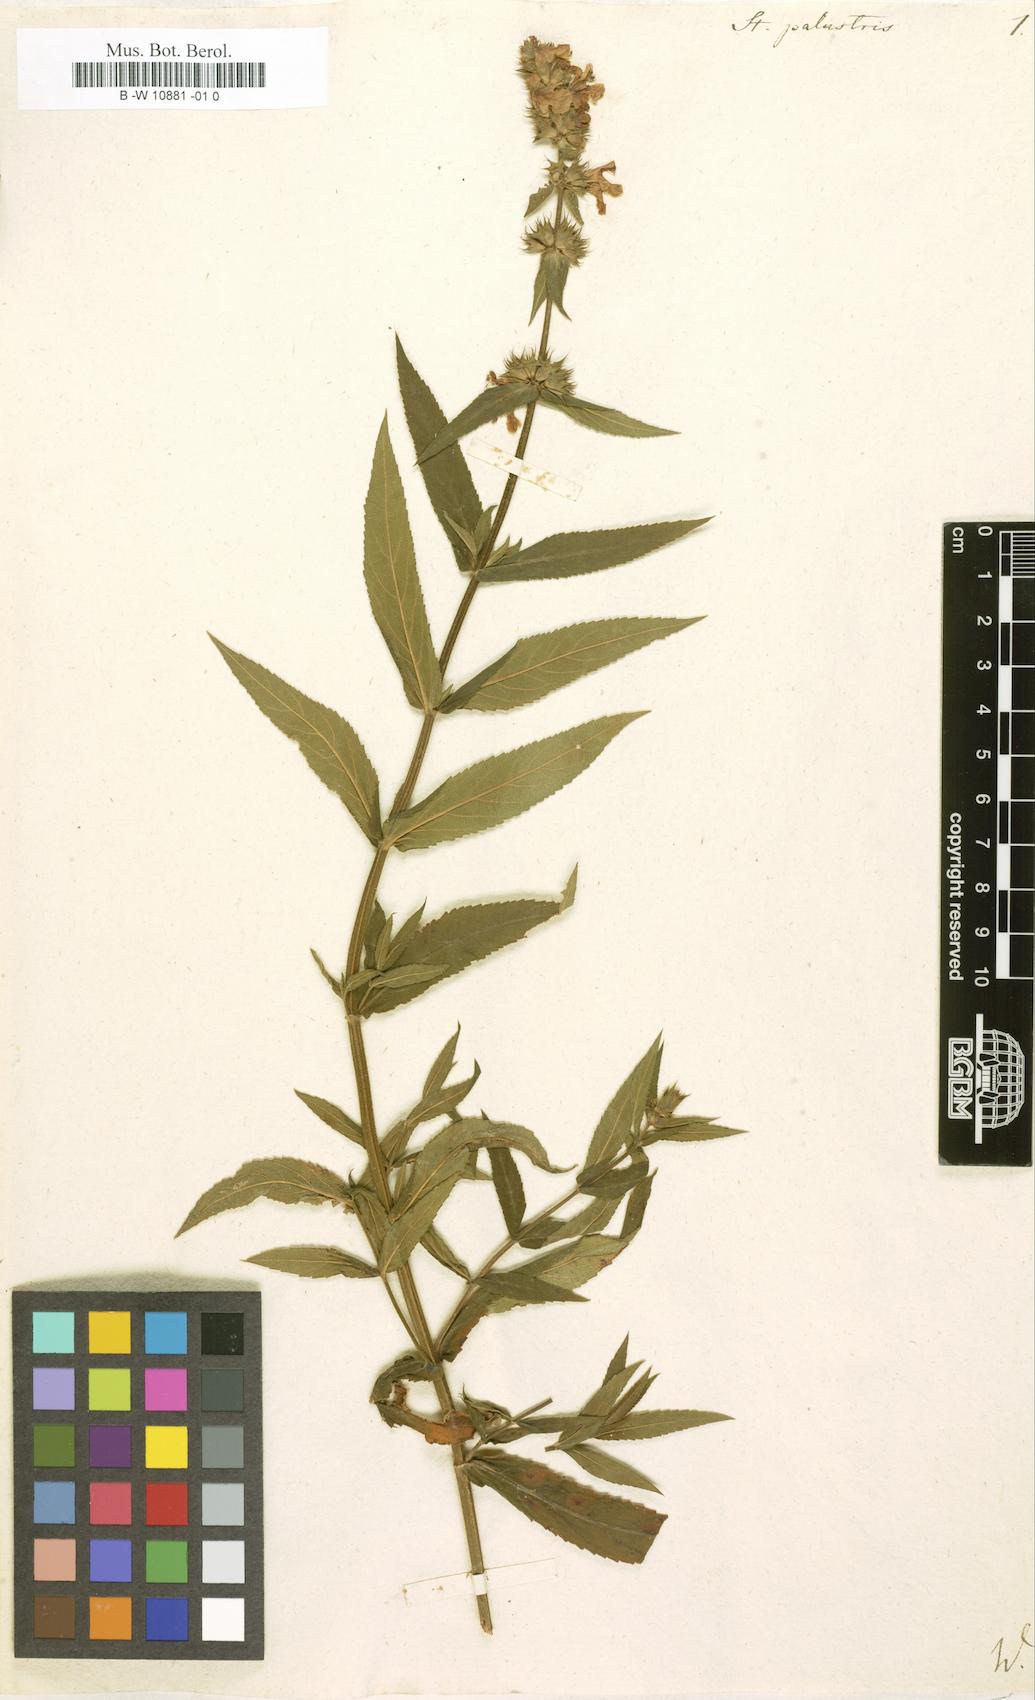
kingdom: Plantae
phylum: Tracheophyta
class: Magnoliopsida
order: Lamiales
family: Lamiaceae
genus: Stachys
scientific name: Stachys palustris
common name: Marsh woundwort
